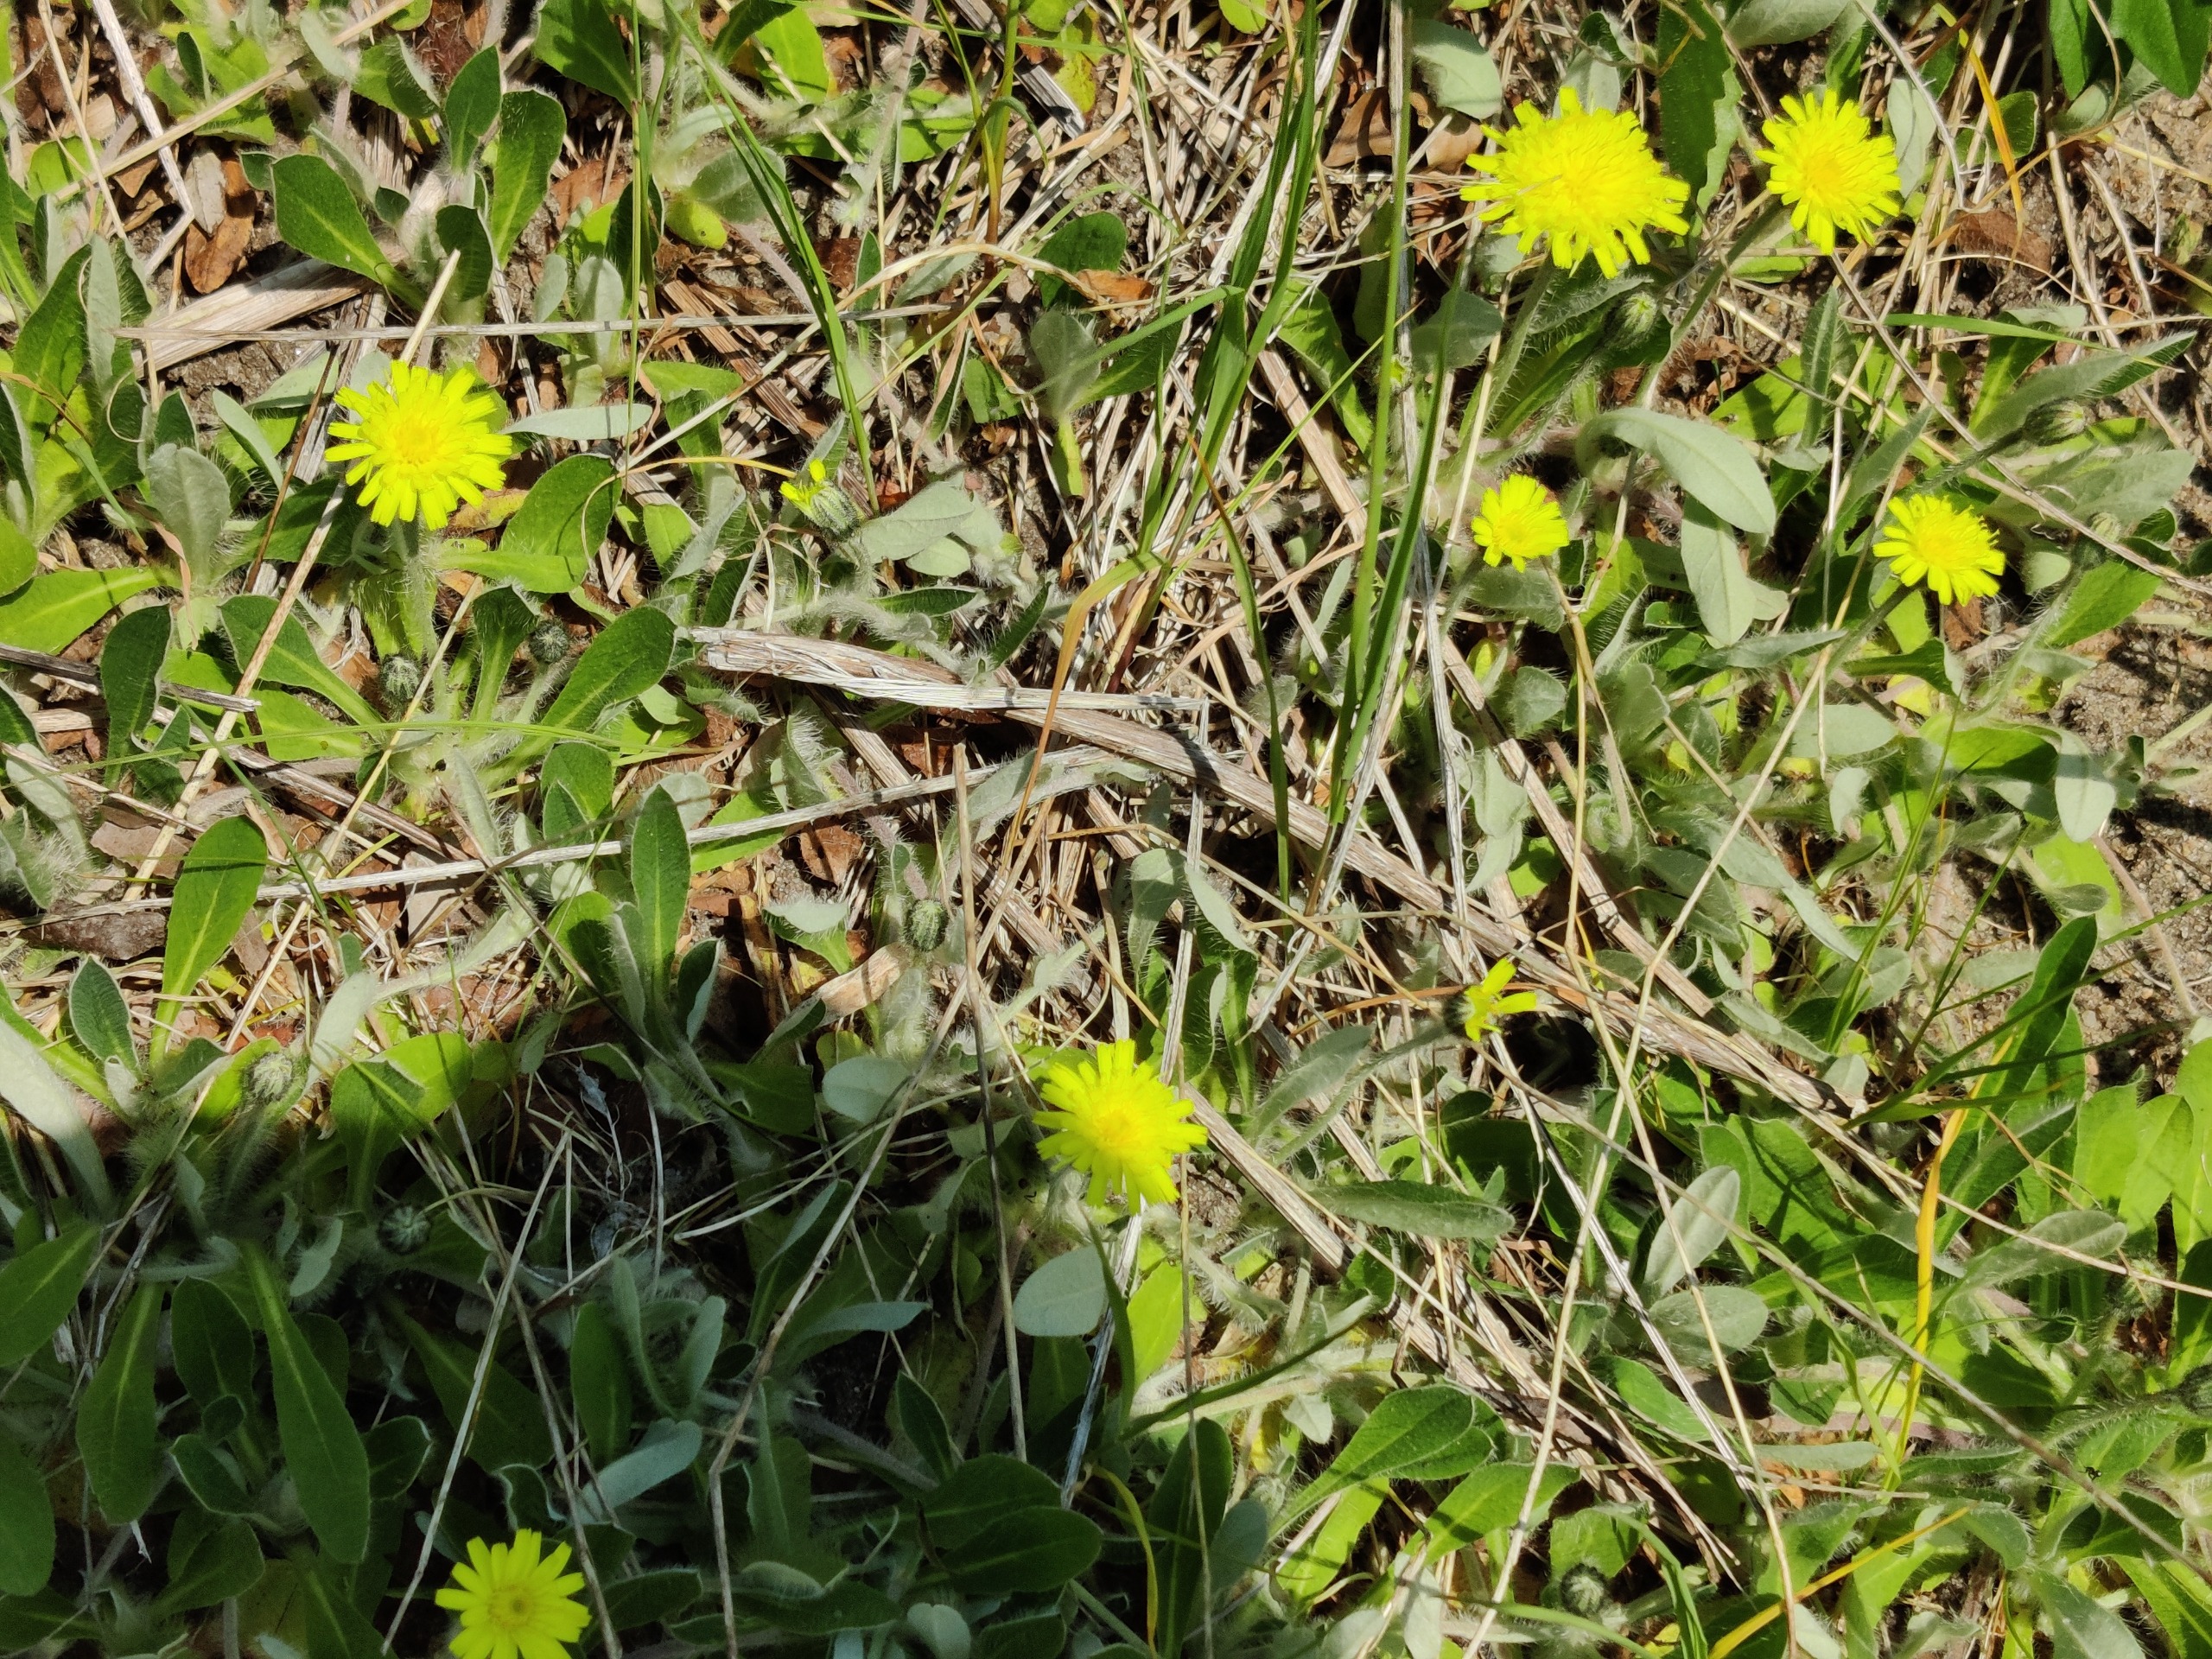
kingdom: Plantae
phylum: Tracheophyta
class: Magnoliopsida
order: Asterales
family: Asteraceae
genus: Pilosella
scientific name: Pilosella officinarum
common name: Håret høgeurt
